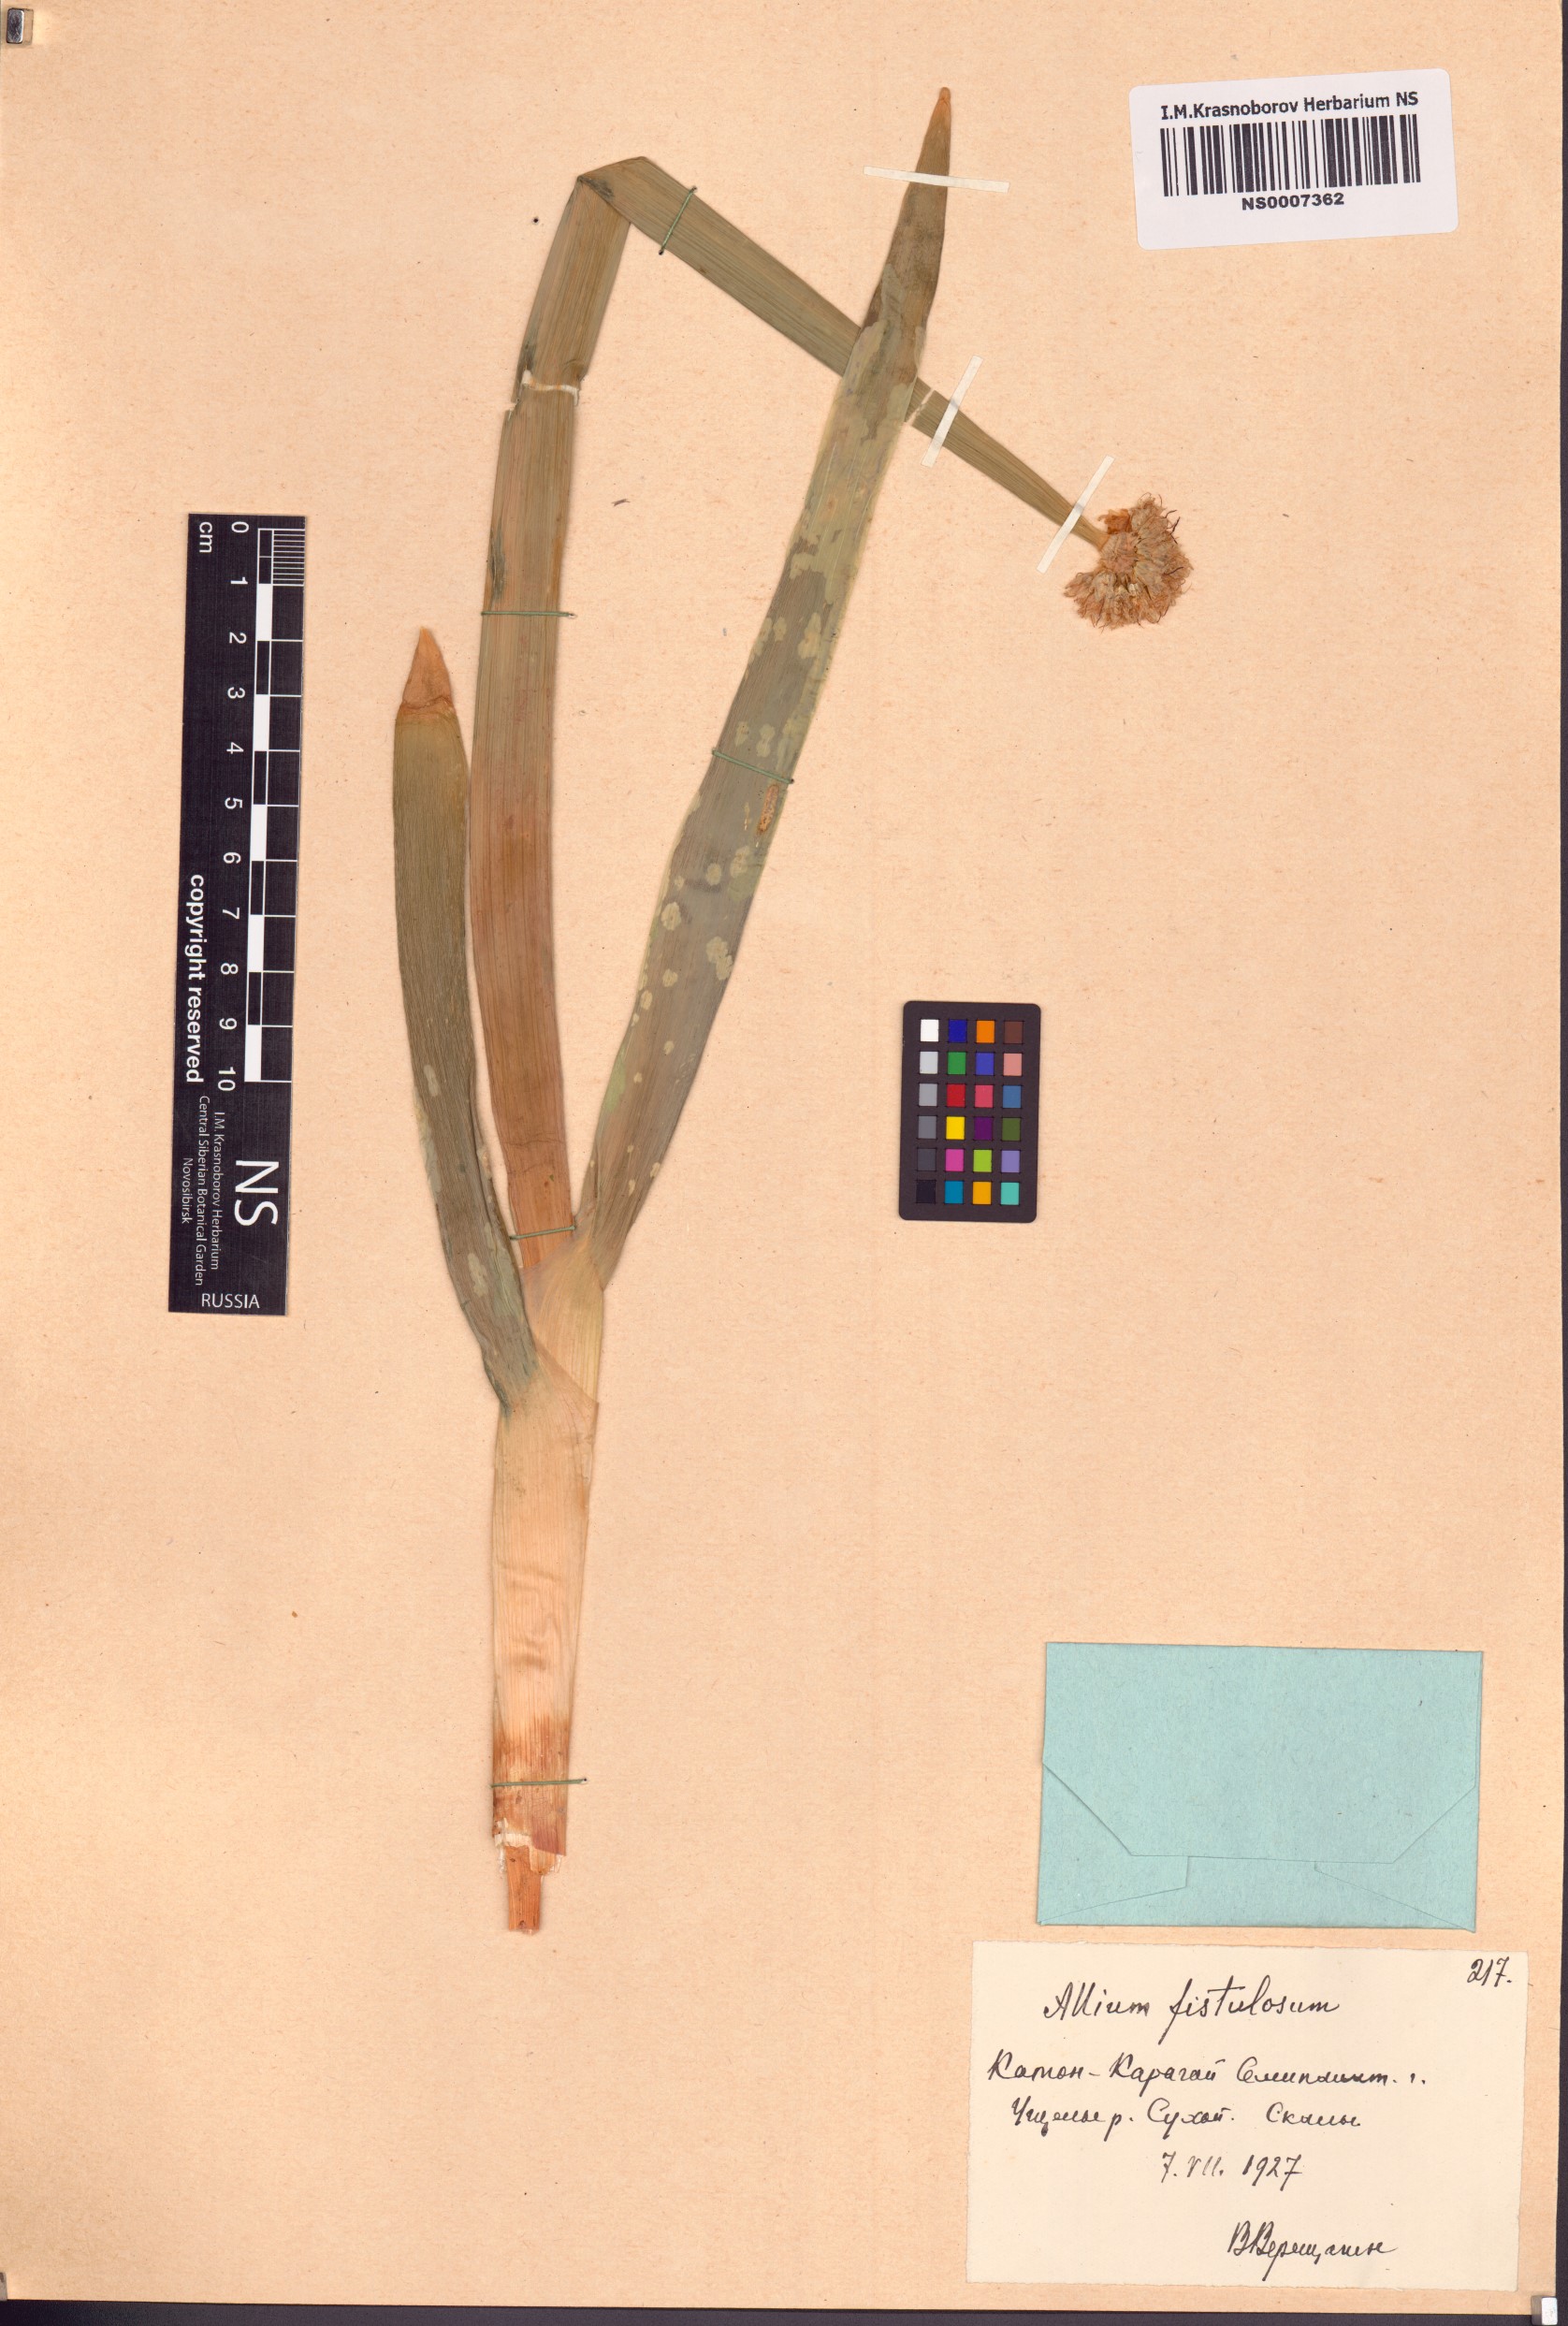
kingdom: Plantae
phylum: Tracheophyta
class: Liliopsida
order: Asparagales
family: Amaryllidaceae
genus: Allium
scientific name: Allium altaicum
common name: Altai onion
